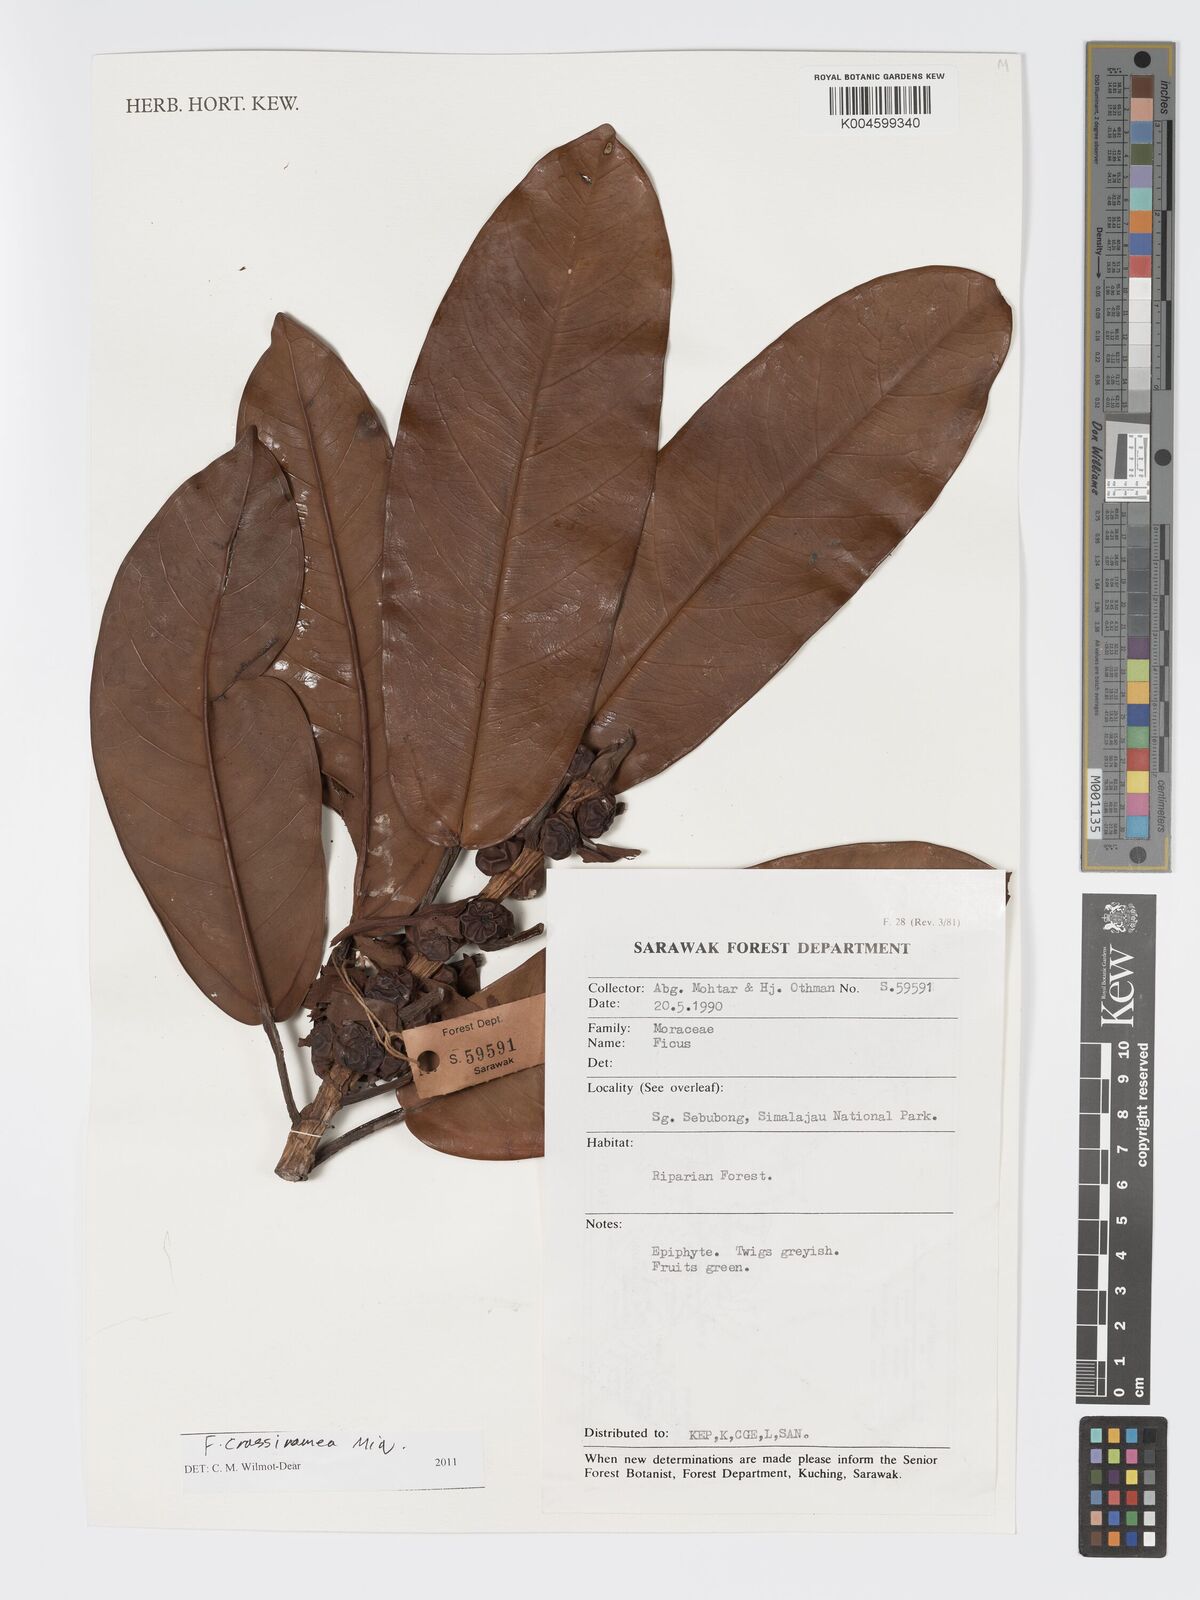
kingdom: Plantae
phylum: Tracheophyta
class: Magnoliopsida
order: Rosales
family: Moraceae
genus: Ficus
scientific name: Ficus crassiramea
